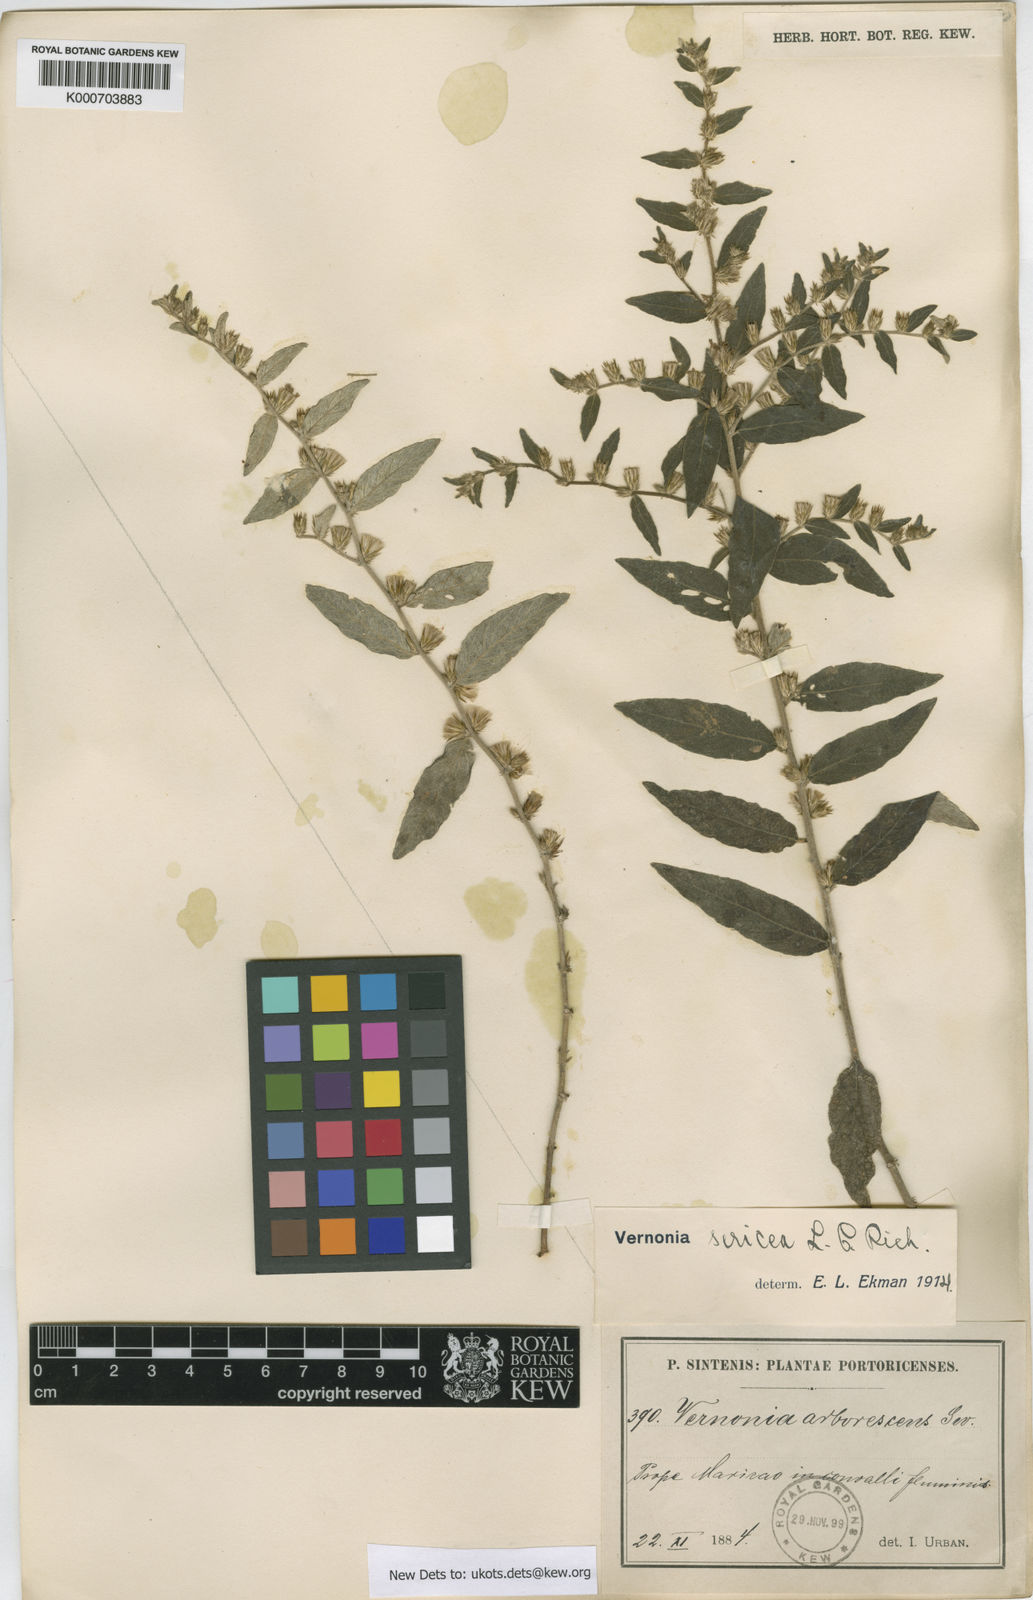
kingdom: Plantae
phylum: Tracheophyta
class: Magnoliopsida
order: Asterales
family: Asteraceae
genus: Lepidaploa
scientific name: Lepidaploa sericea
